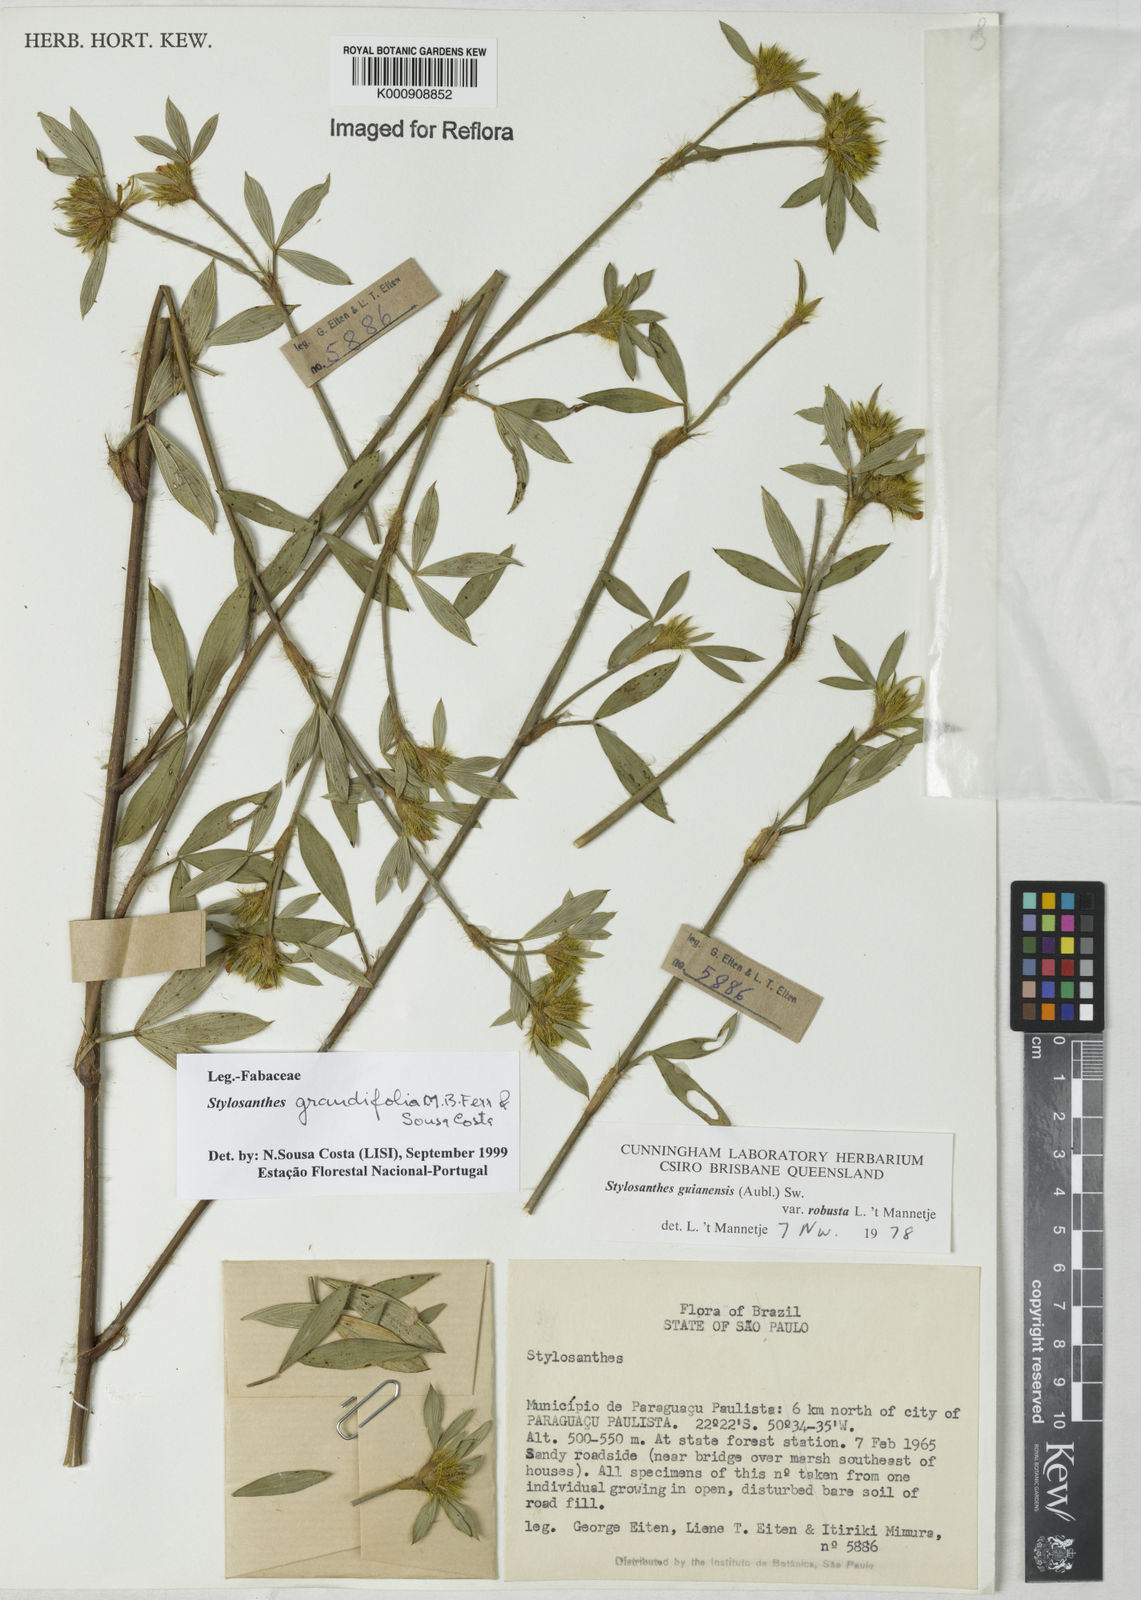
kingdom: Plantae
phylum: Tracheophyta
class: Magnoliopsida
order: Fabales
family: Fabaceae
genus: Stylosanthes
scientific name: Stylosanthes guianensis
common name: Pencil flower
